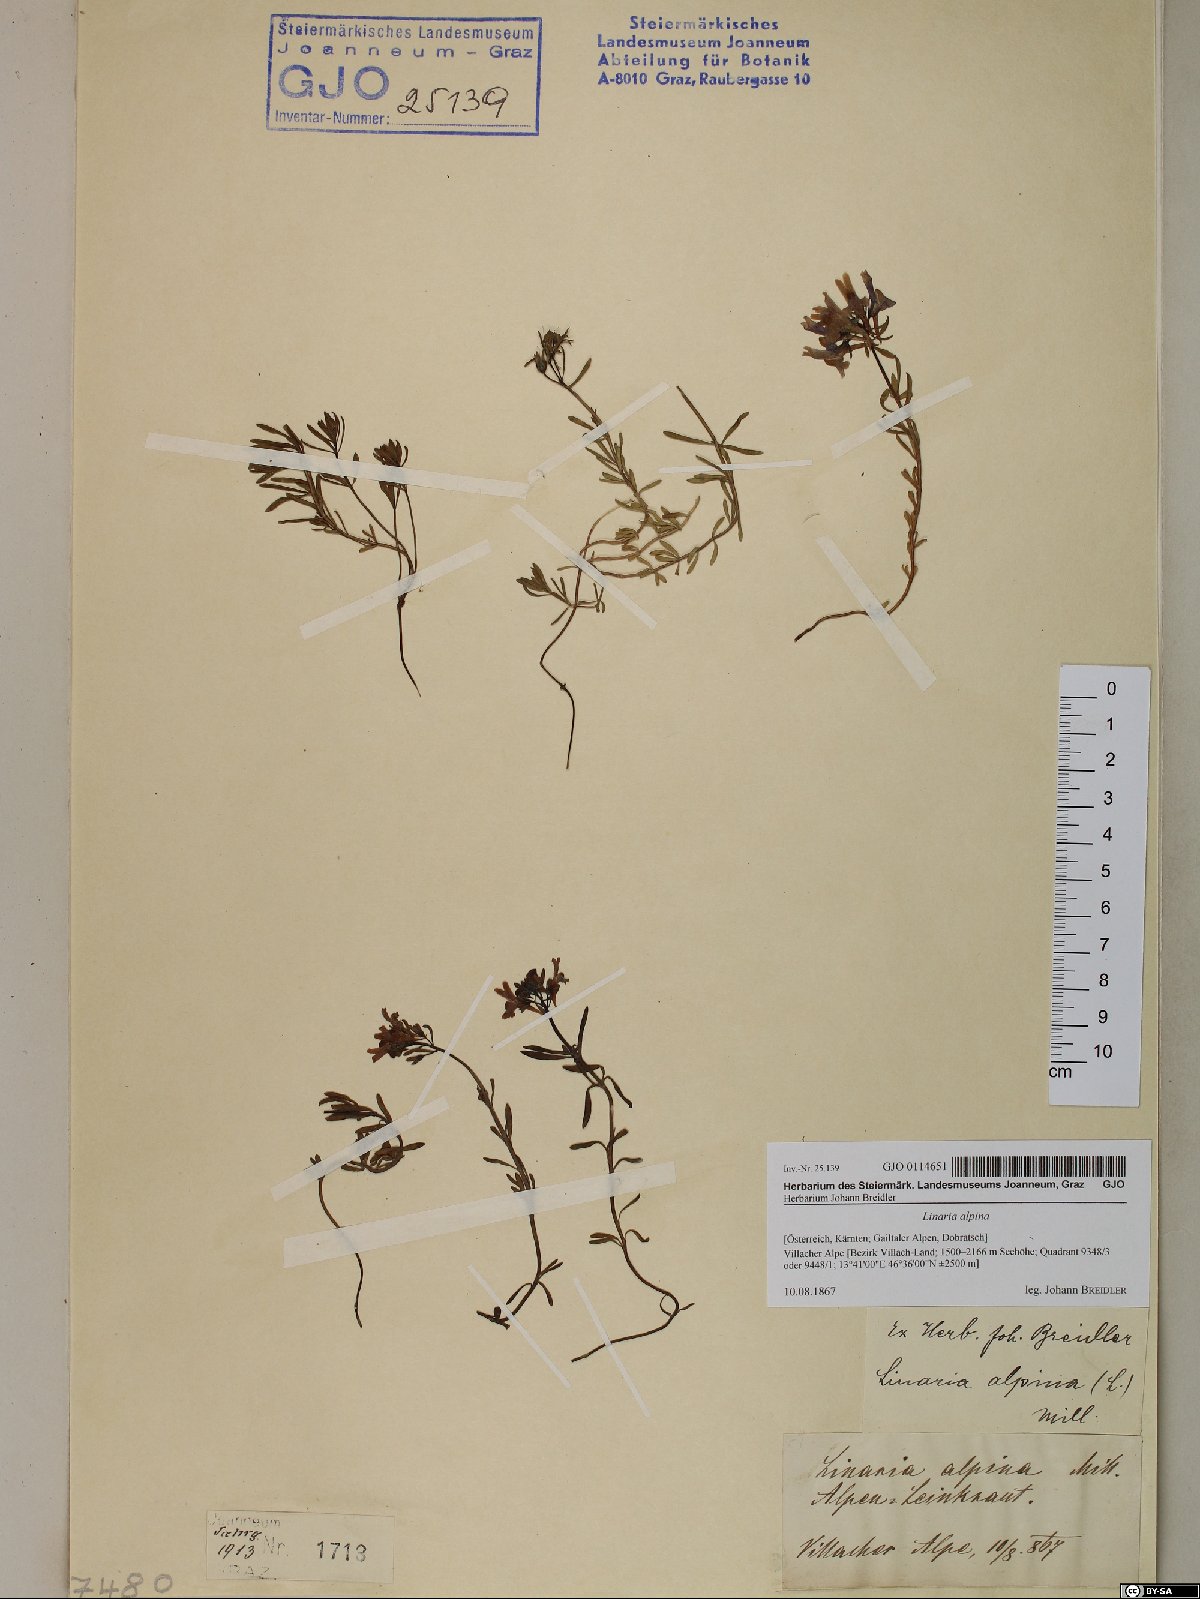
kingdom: Plantae
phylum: Tracheophyta
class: Magnoliopsida
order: Lamiales
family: Plantaginaceae
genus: Linaria
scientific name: Linaria alpina
